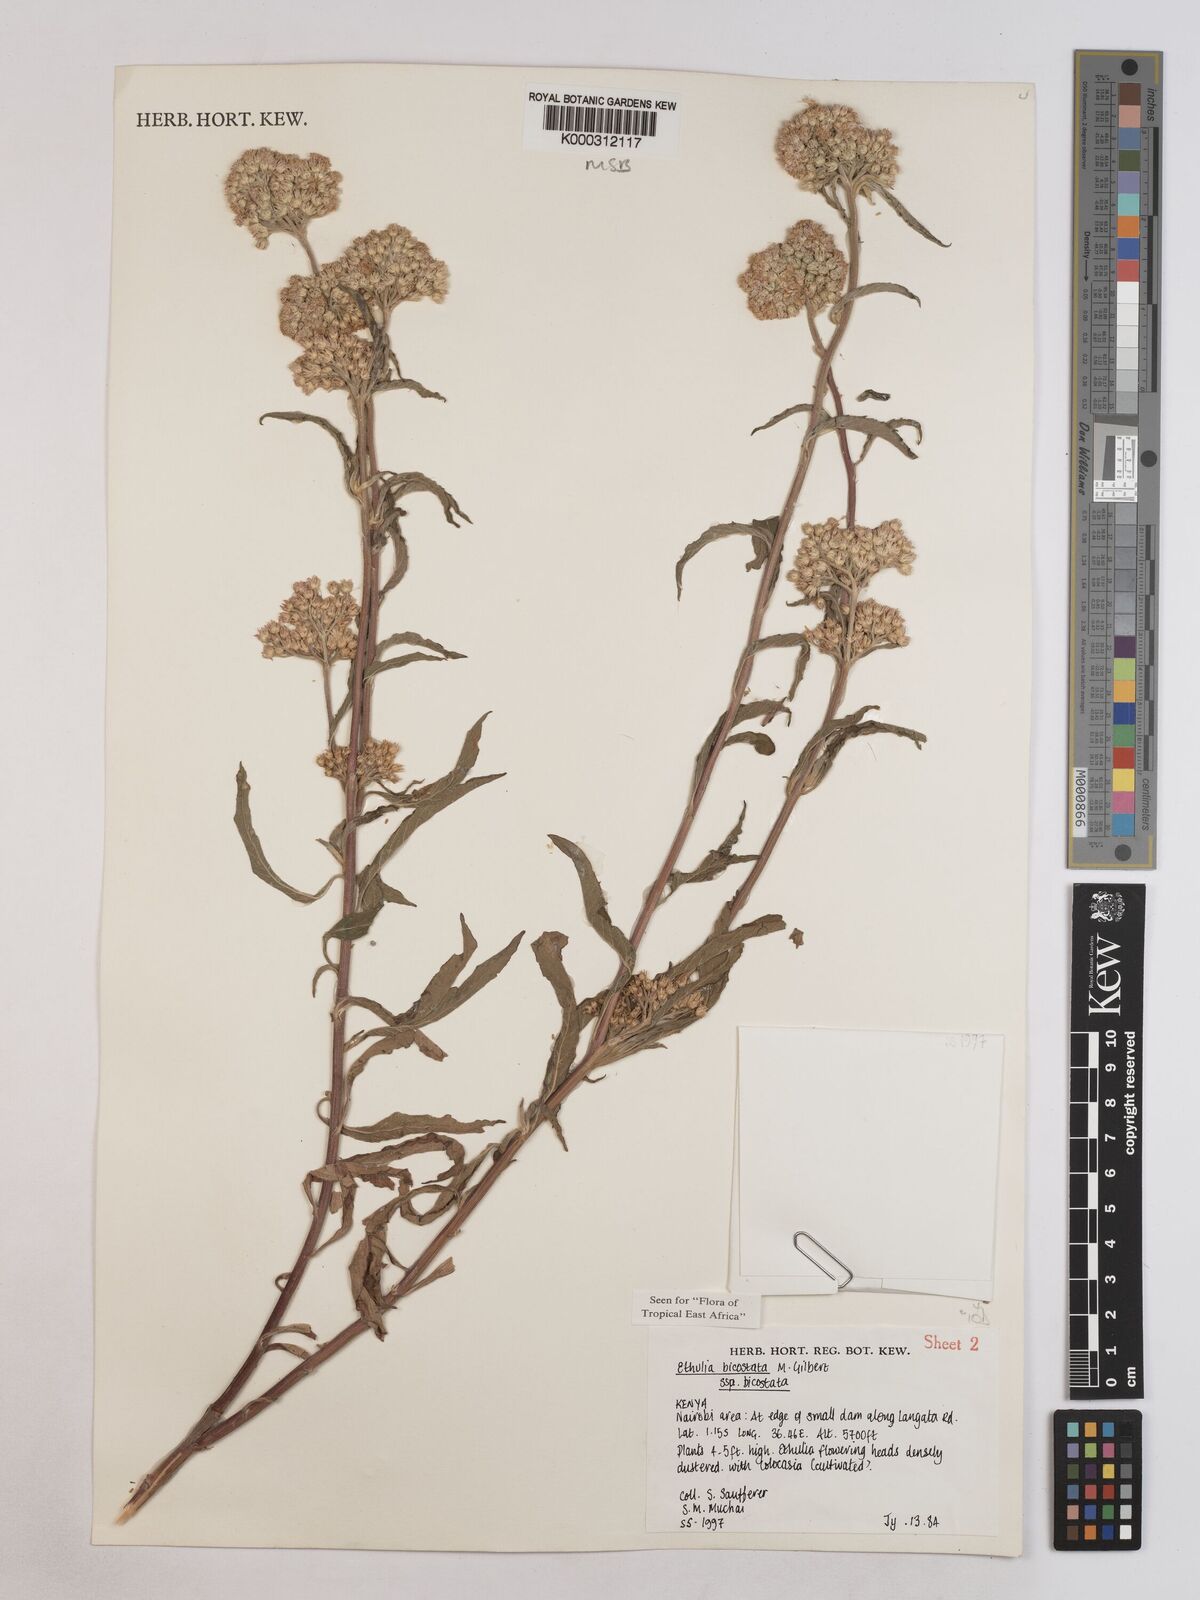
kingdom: Plantae
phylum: Tracheophyta
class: Magnoliopsida
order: Asterales
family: Asteraceae
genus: Ethulia
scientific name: Ethulia bicostata
